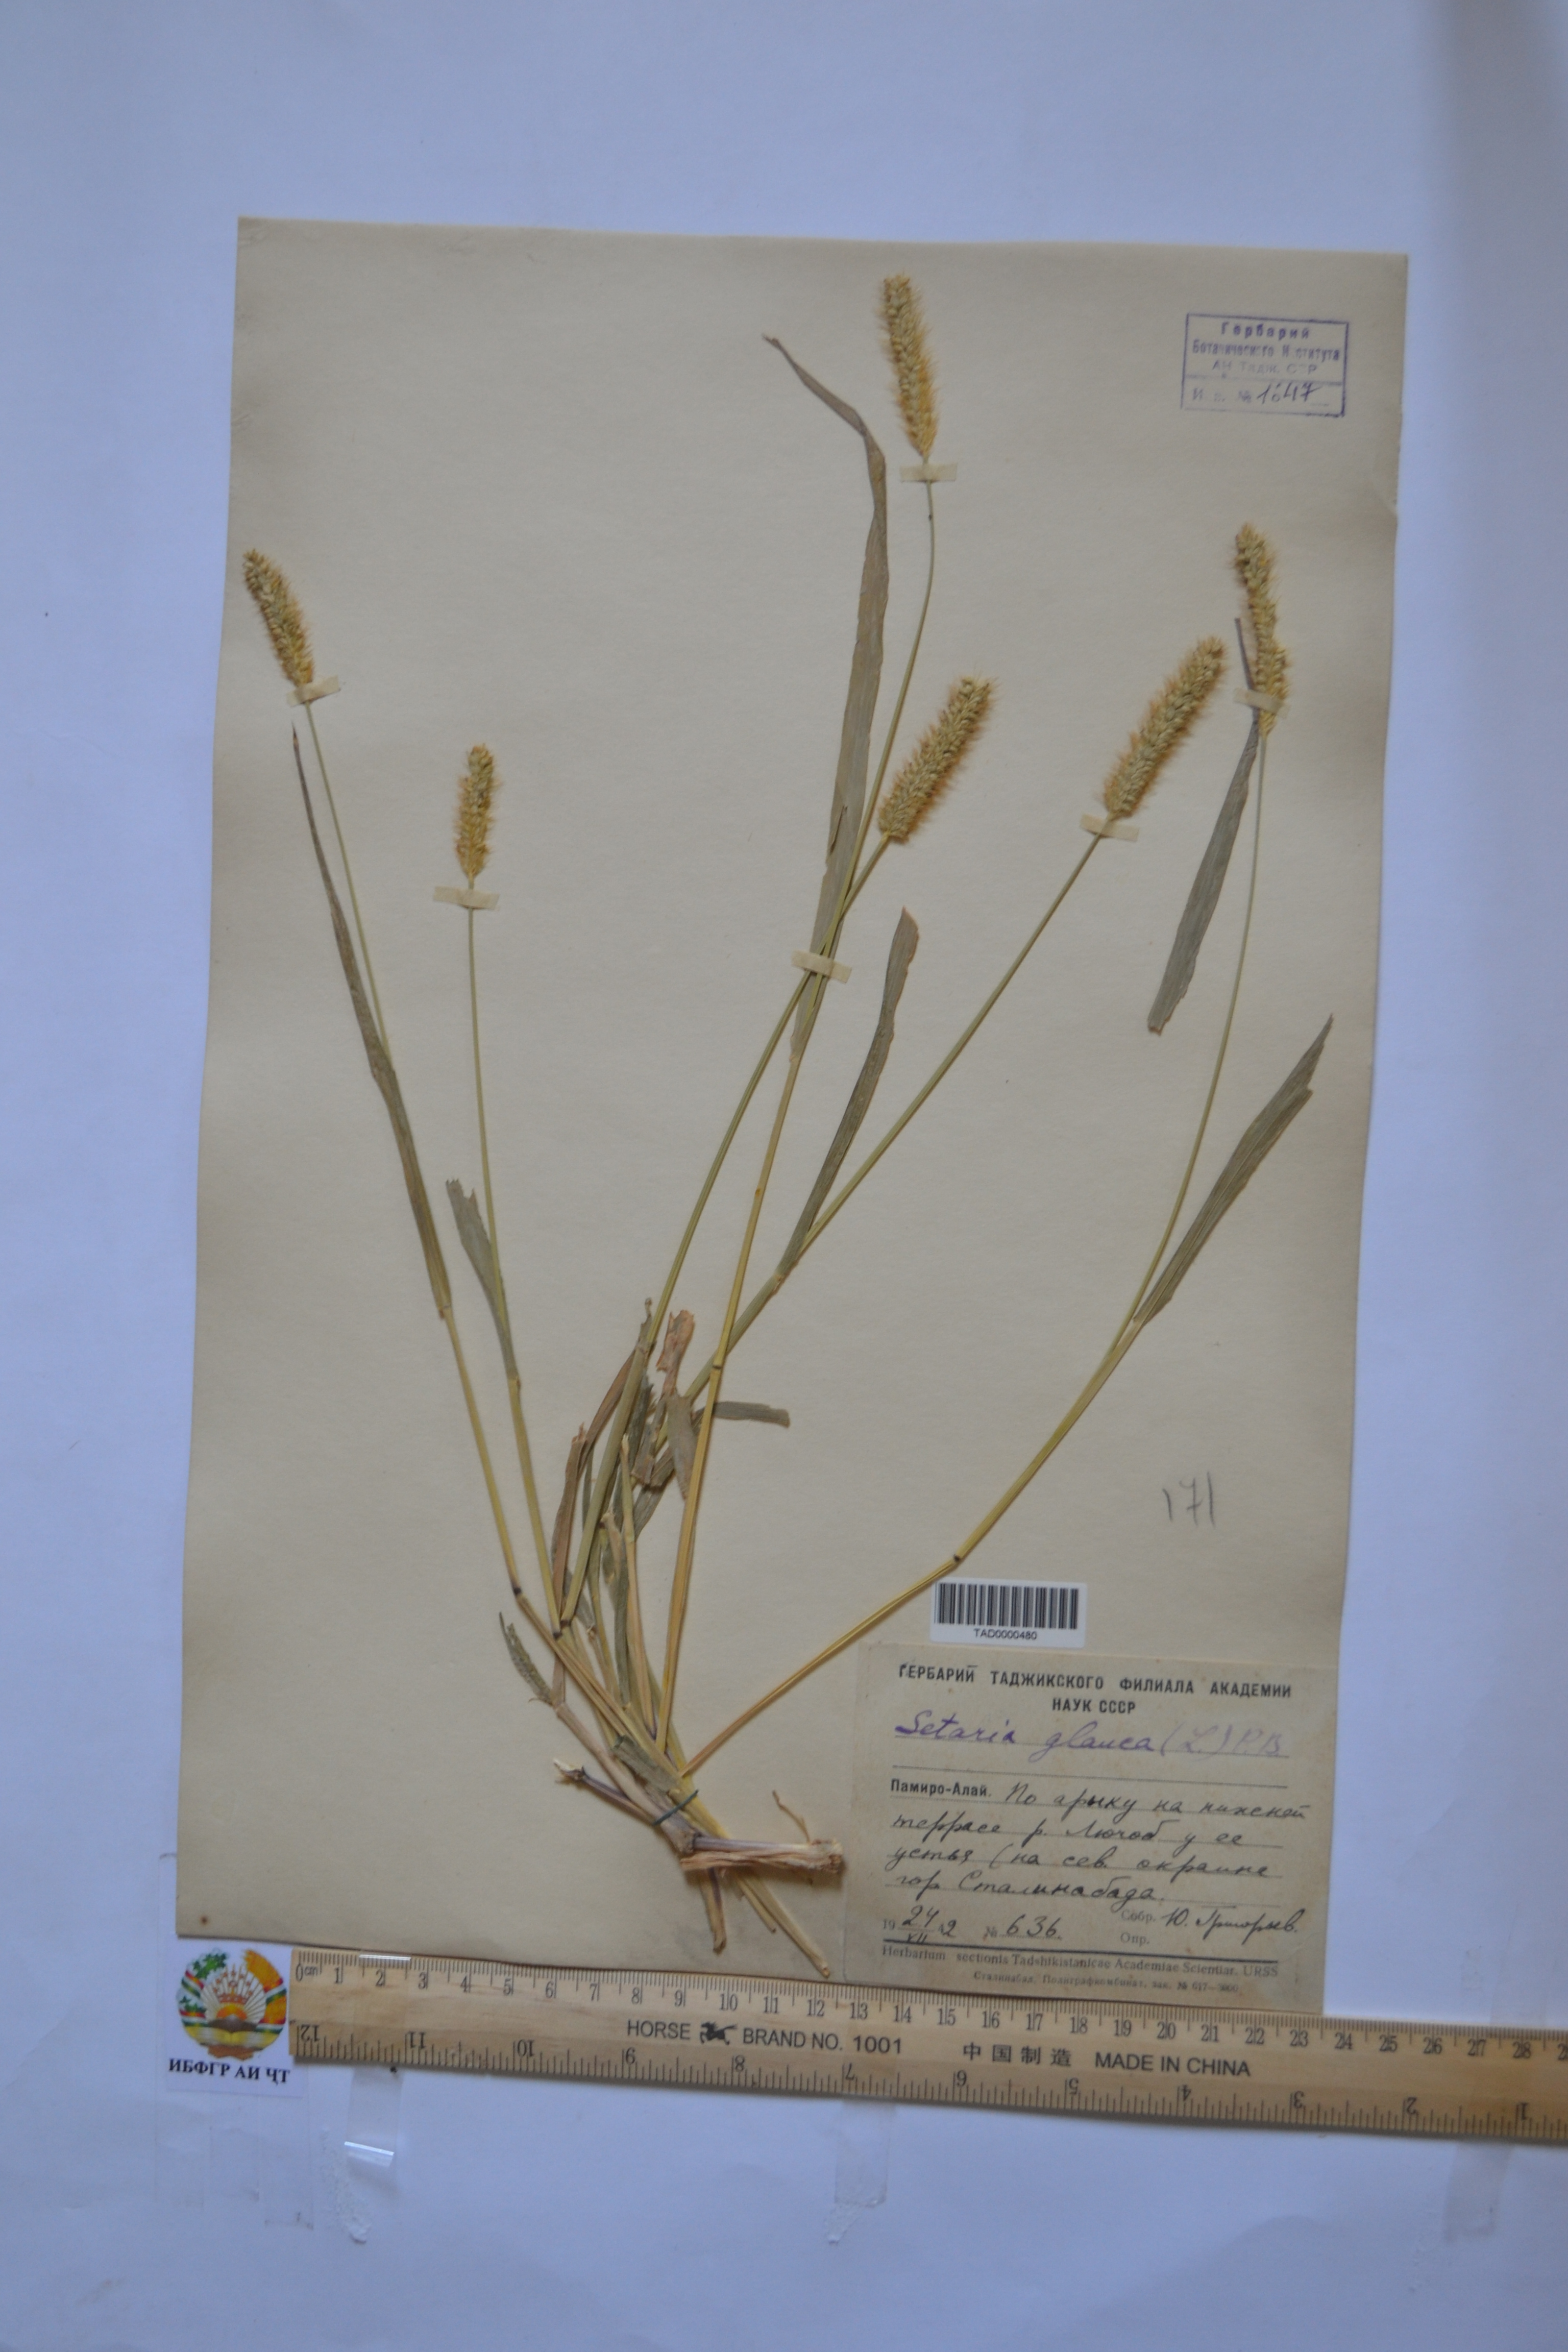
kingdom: Plantae
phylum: Tracheophyta
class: Liliopsida
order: Poales
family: Poaceae
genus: Cenchrus
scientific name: Cenchrus americanus
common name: Pearl millet
